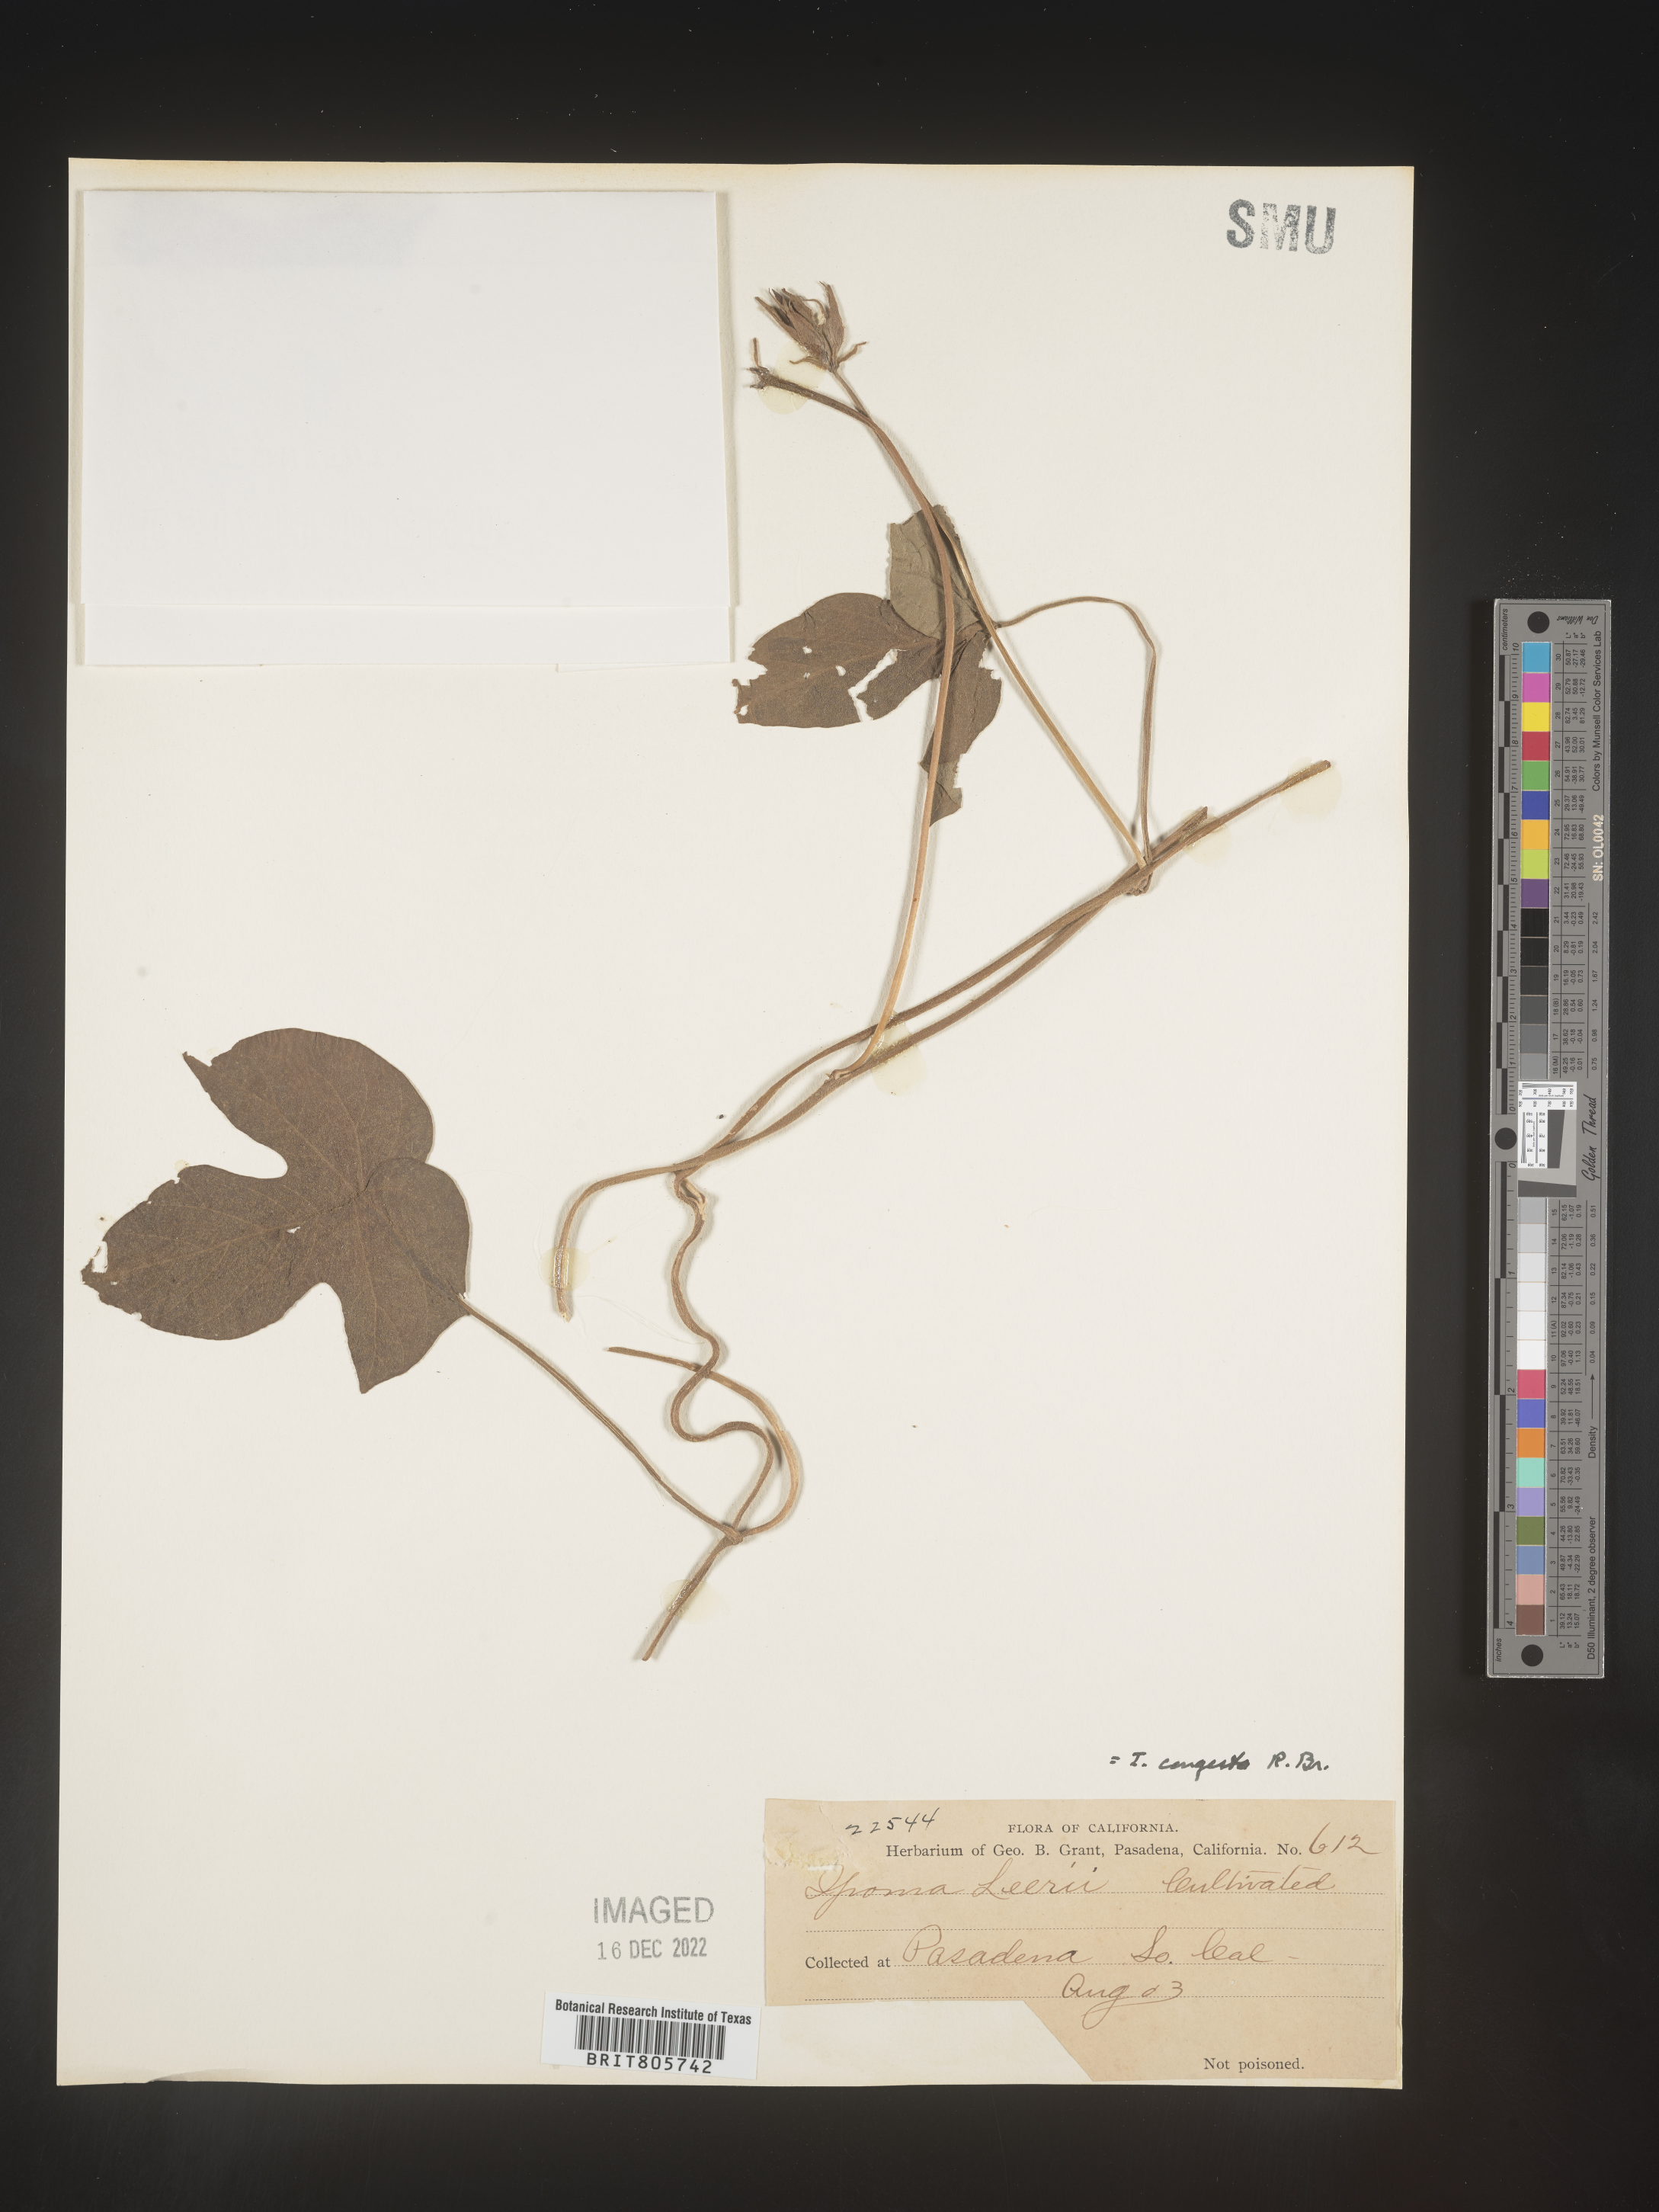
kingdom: Plantae
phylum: Tracheophyta
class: Magnoliopsida
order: Solanales
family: Convolvulaceae
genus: Ipomoea
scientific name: Ipomoea coccinea
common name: Red morning-glory
